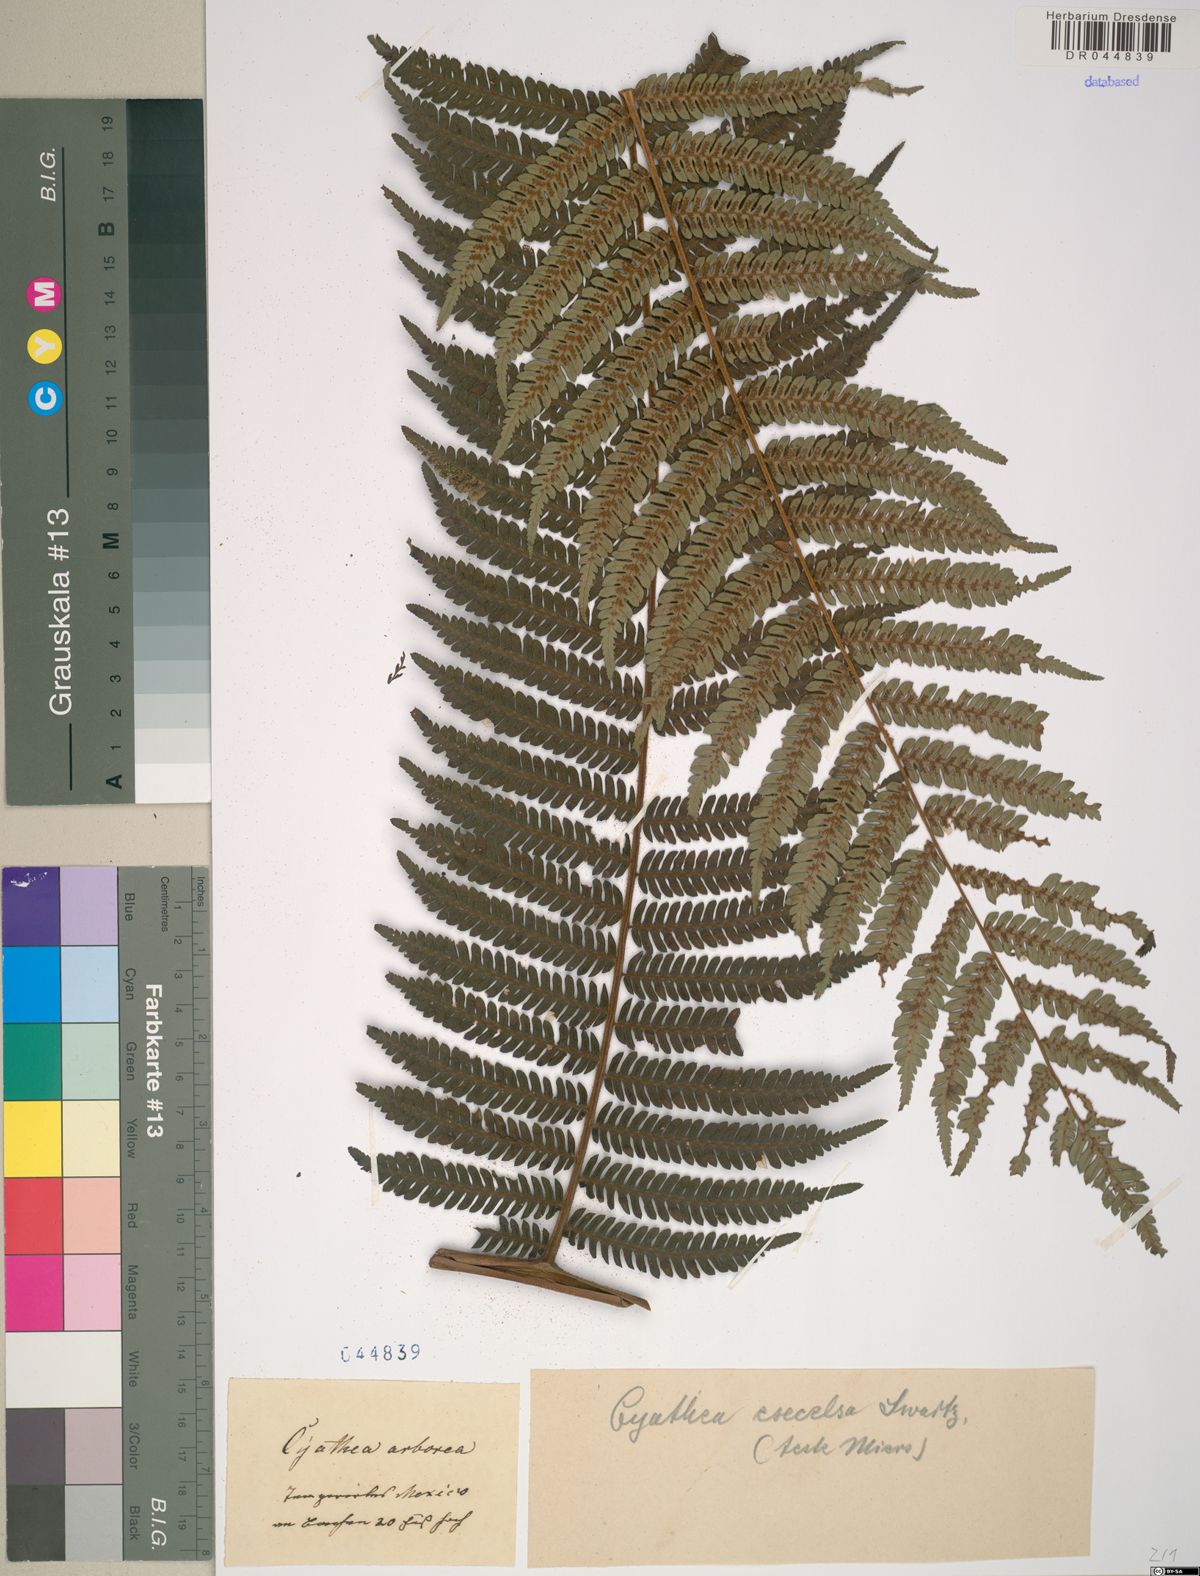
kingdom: Plantae
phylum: Tracheophyta
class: Polypodiopsida
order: Cyatheales
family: Cyatheaceae
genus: Cyathea
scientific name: Cyathea arborea
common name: West indian treefern
